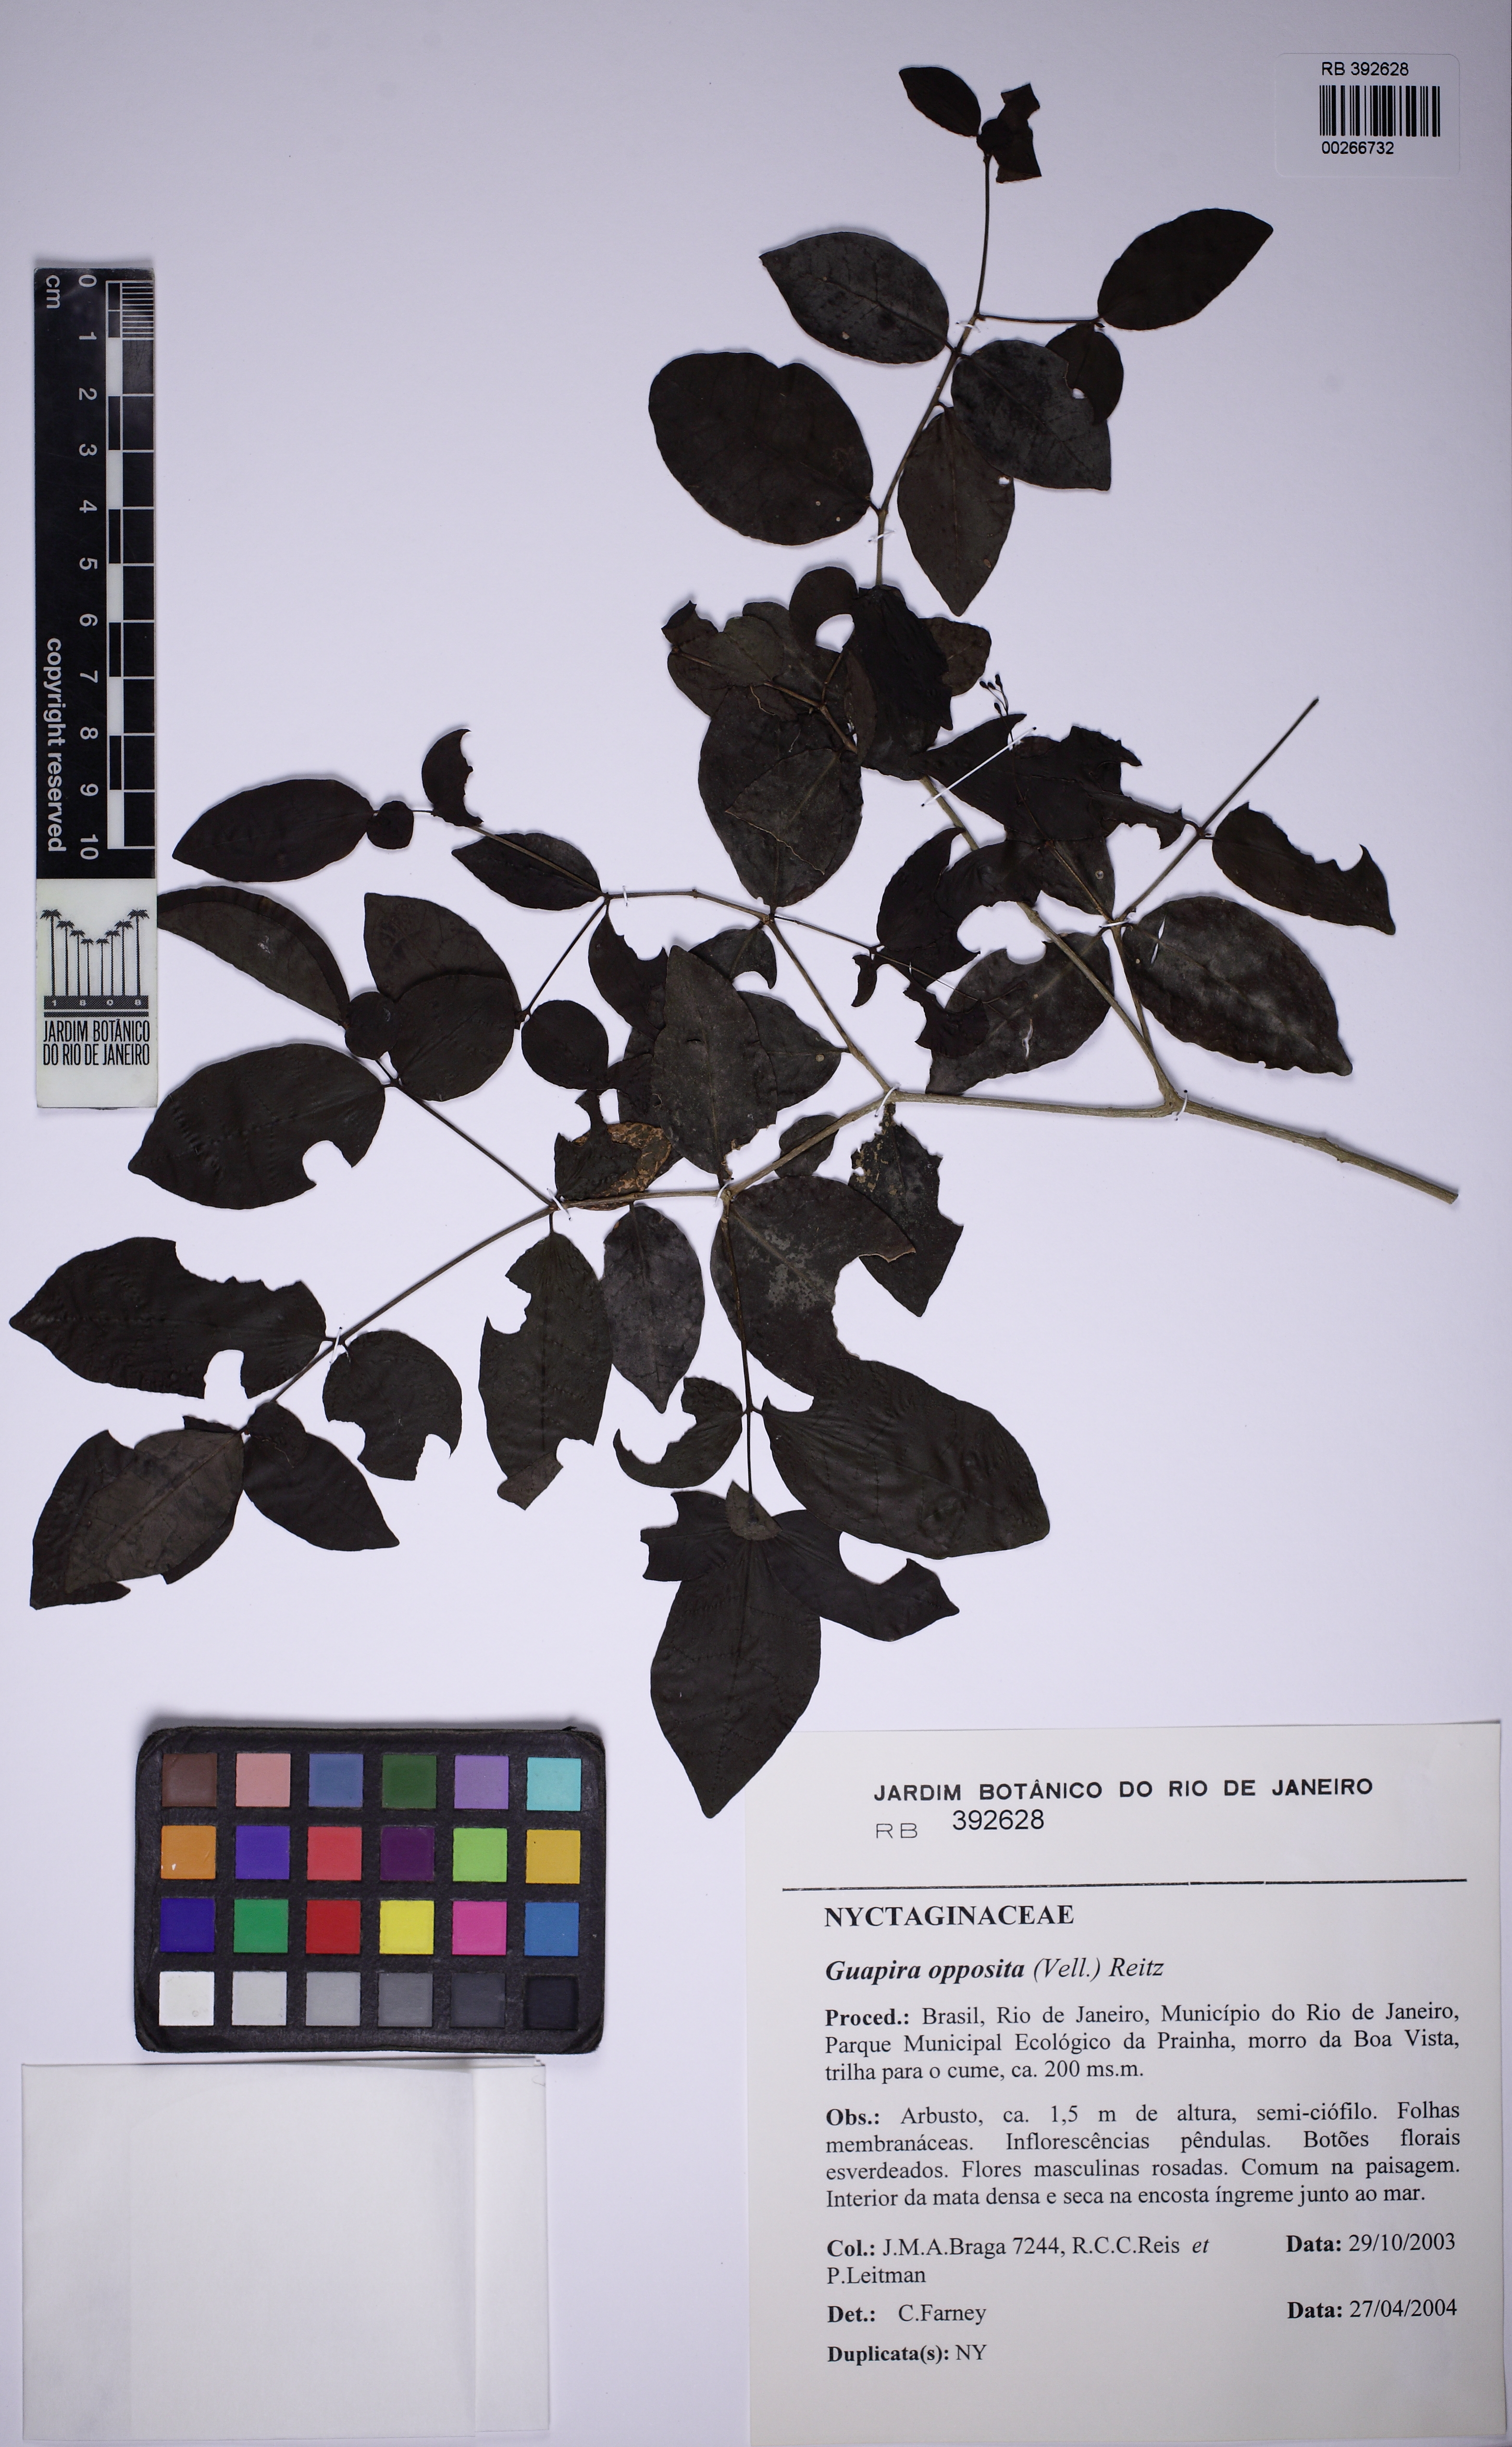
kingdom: Plantae
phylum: Tracheophyta
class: Magnoliopsida
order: Caryophyllales
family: Nyctaginaceae
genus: Guapira
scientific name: Guapira opposita
